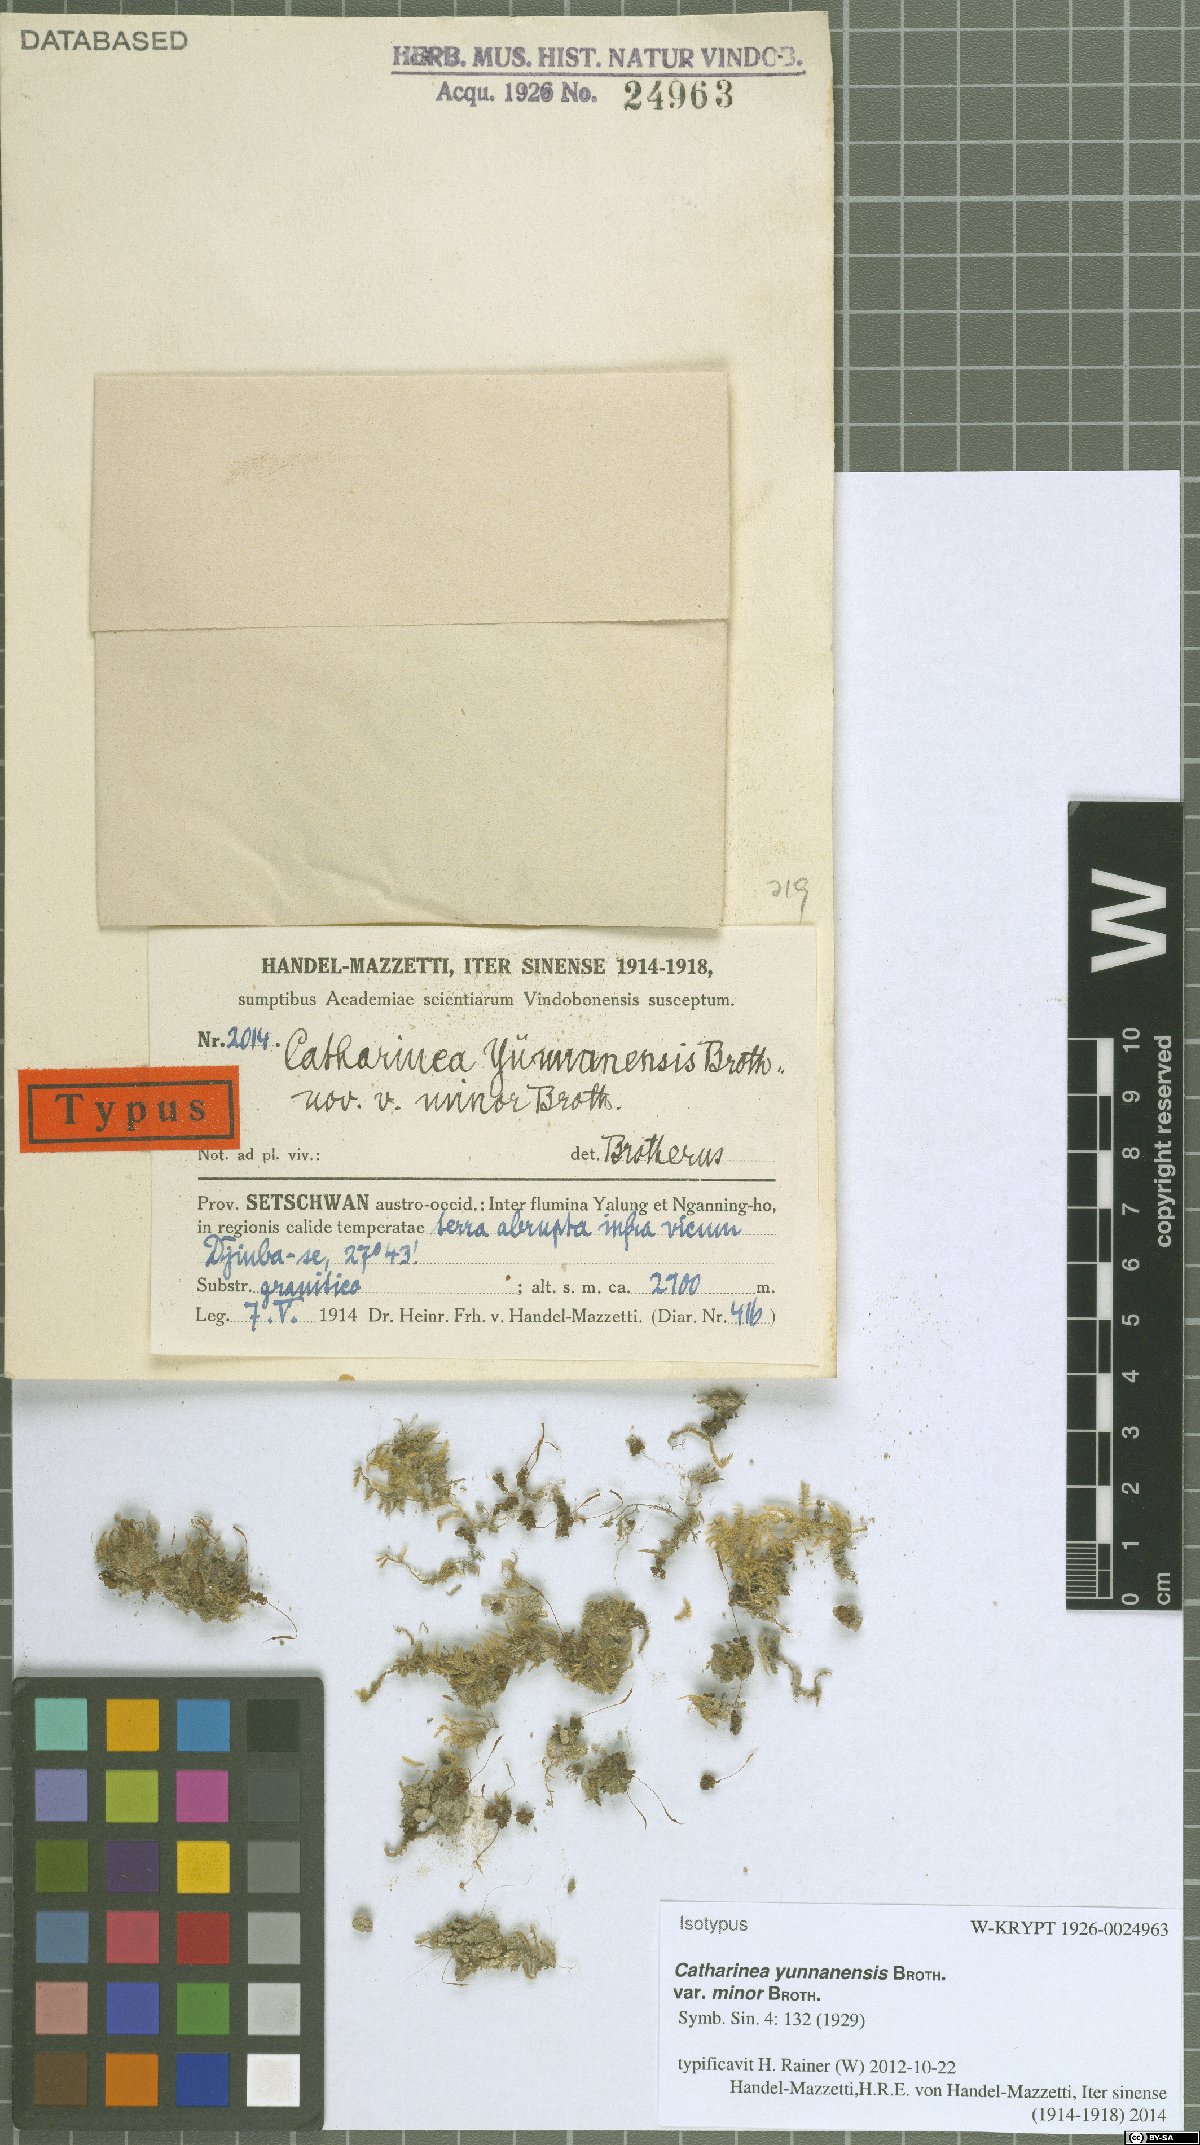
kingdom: Plantae
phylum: Bryophyta
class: Polytrichopsida
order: Polytrichales
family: Polytrichaceae
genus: Atrichum
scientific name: Atrichum flavisetum
